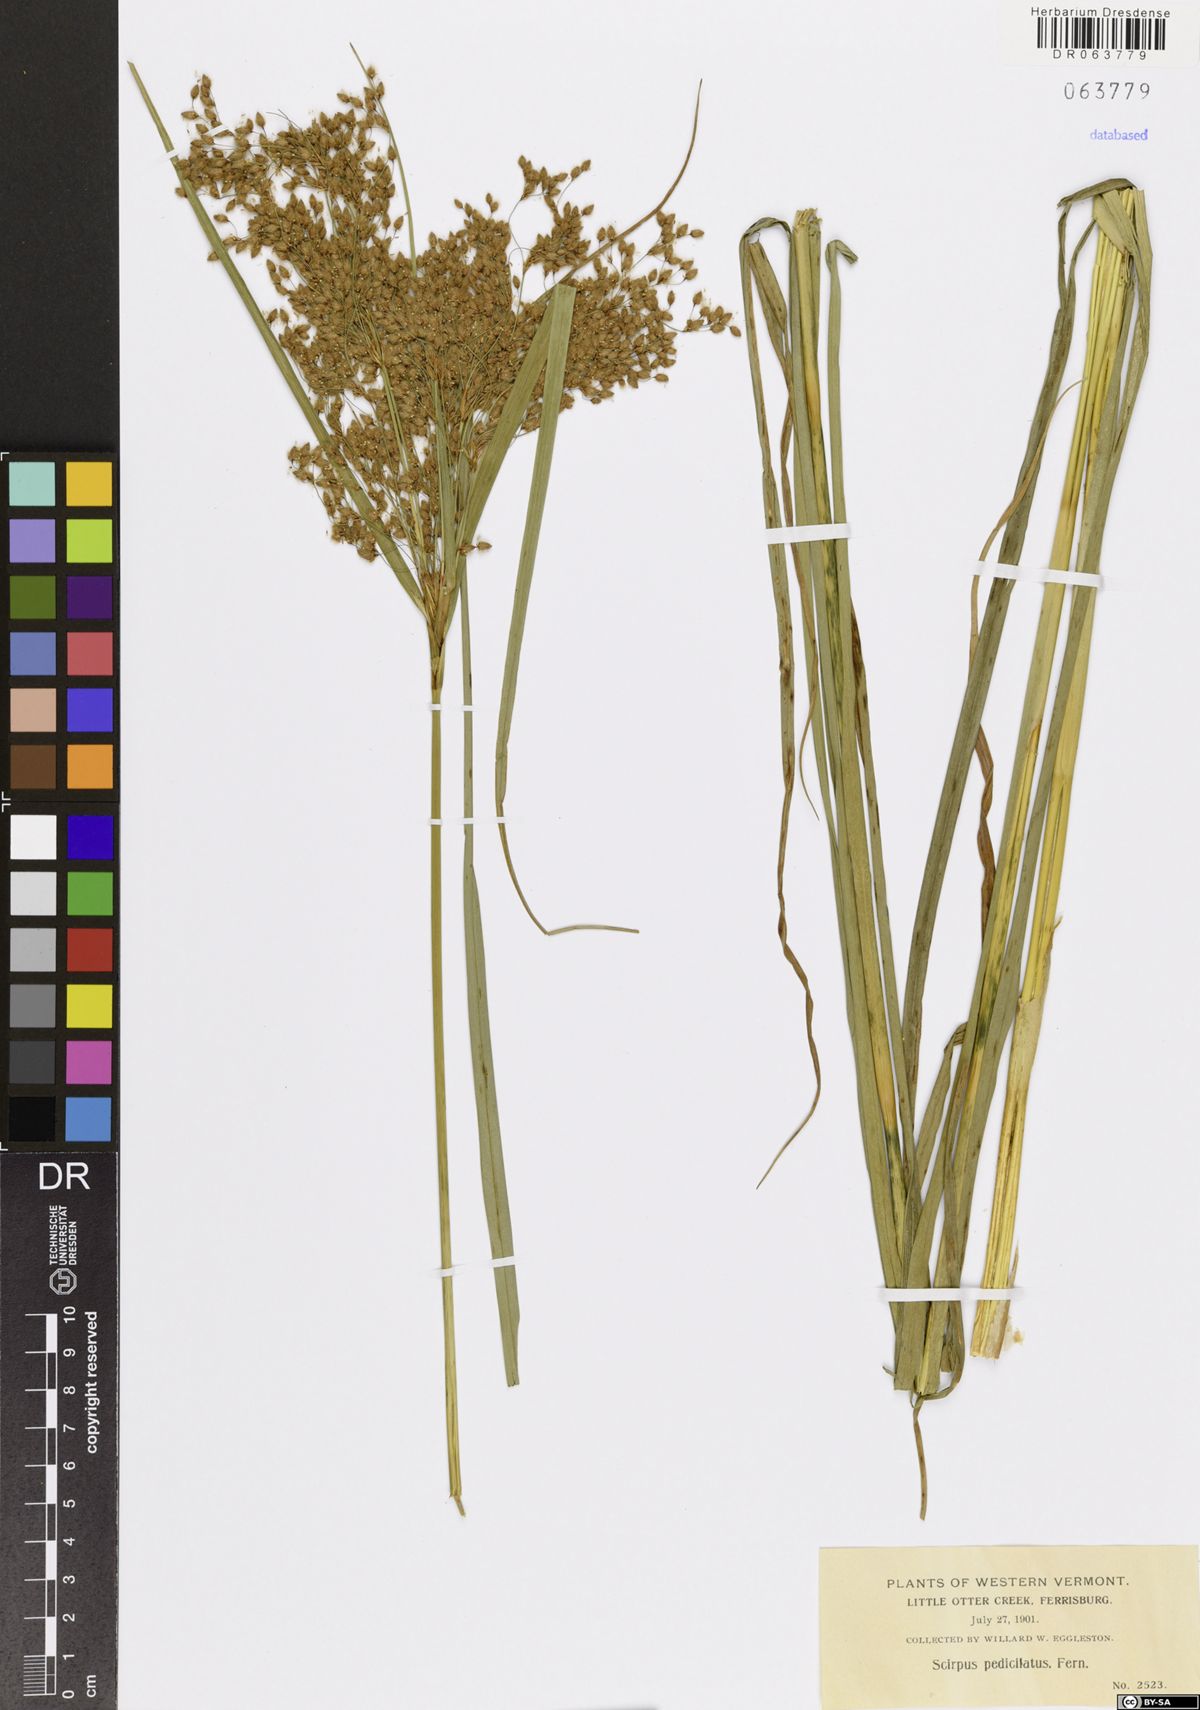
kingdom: Plantae
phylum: Tracheophyta
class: Liliopsida
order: Poales
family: Cyperaceae
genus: Scirpus
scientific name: Scirpus pedicellatus
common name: Pedicelled bulrush
